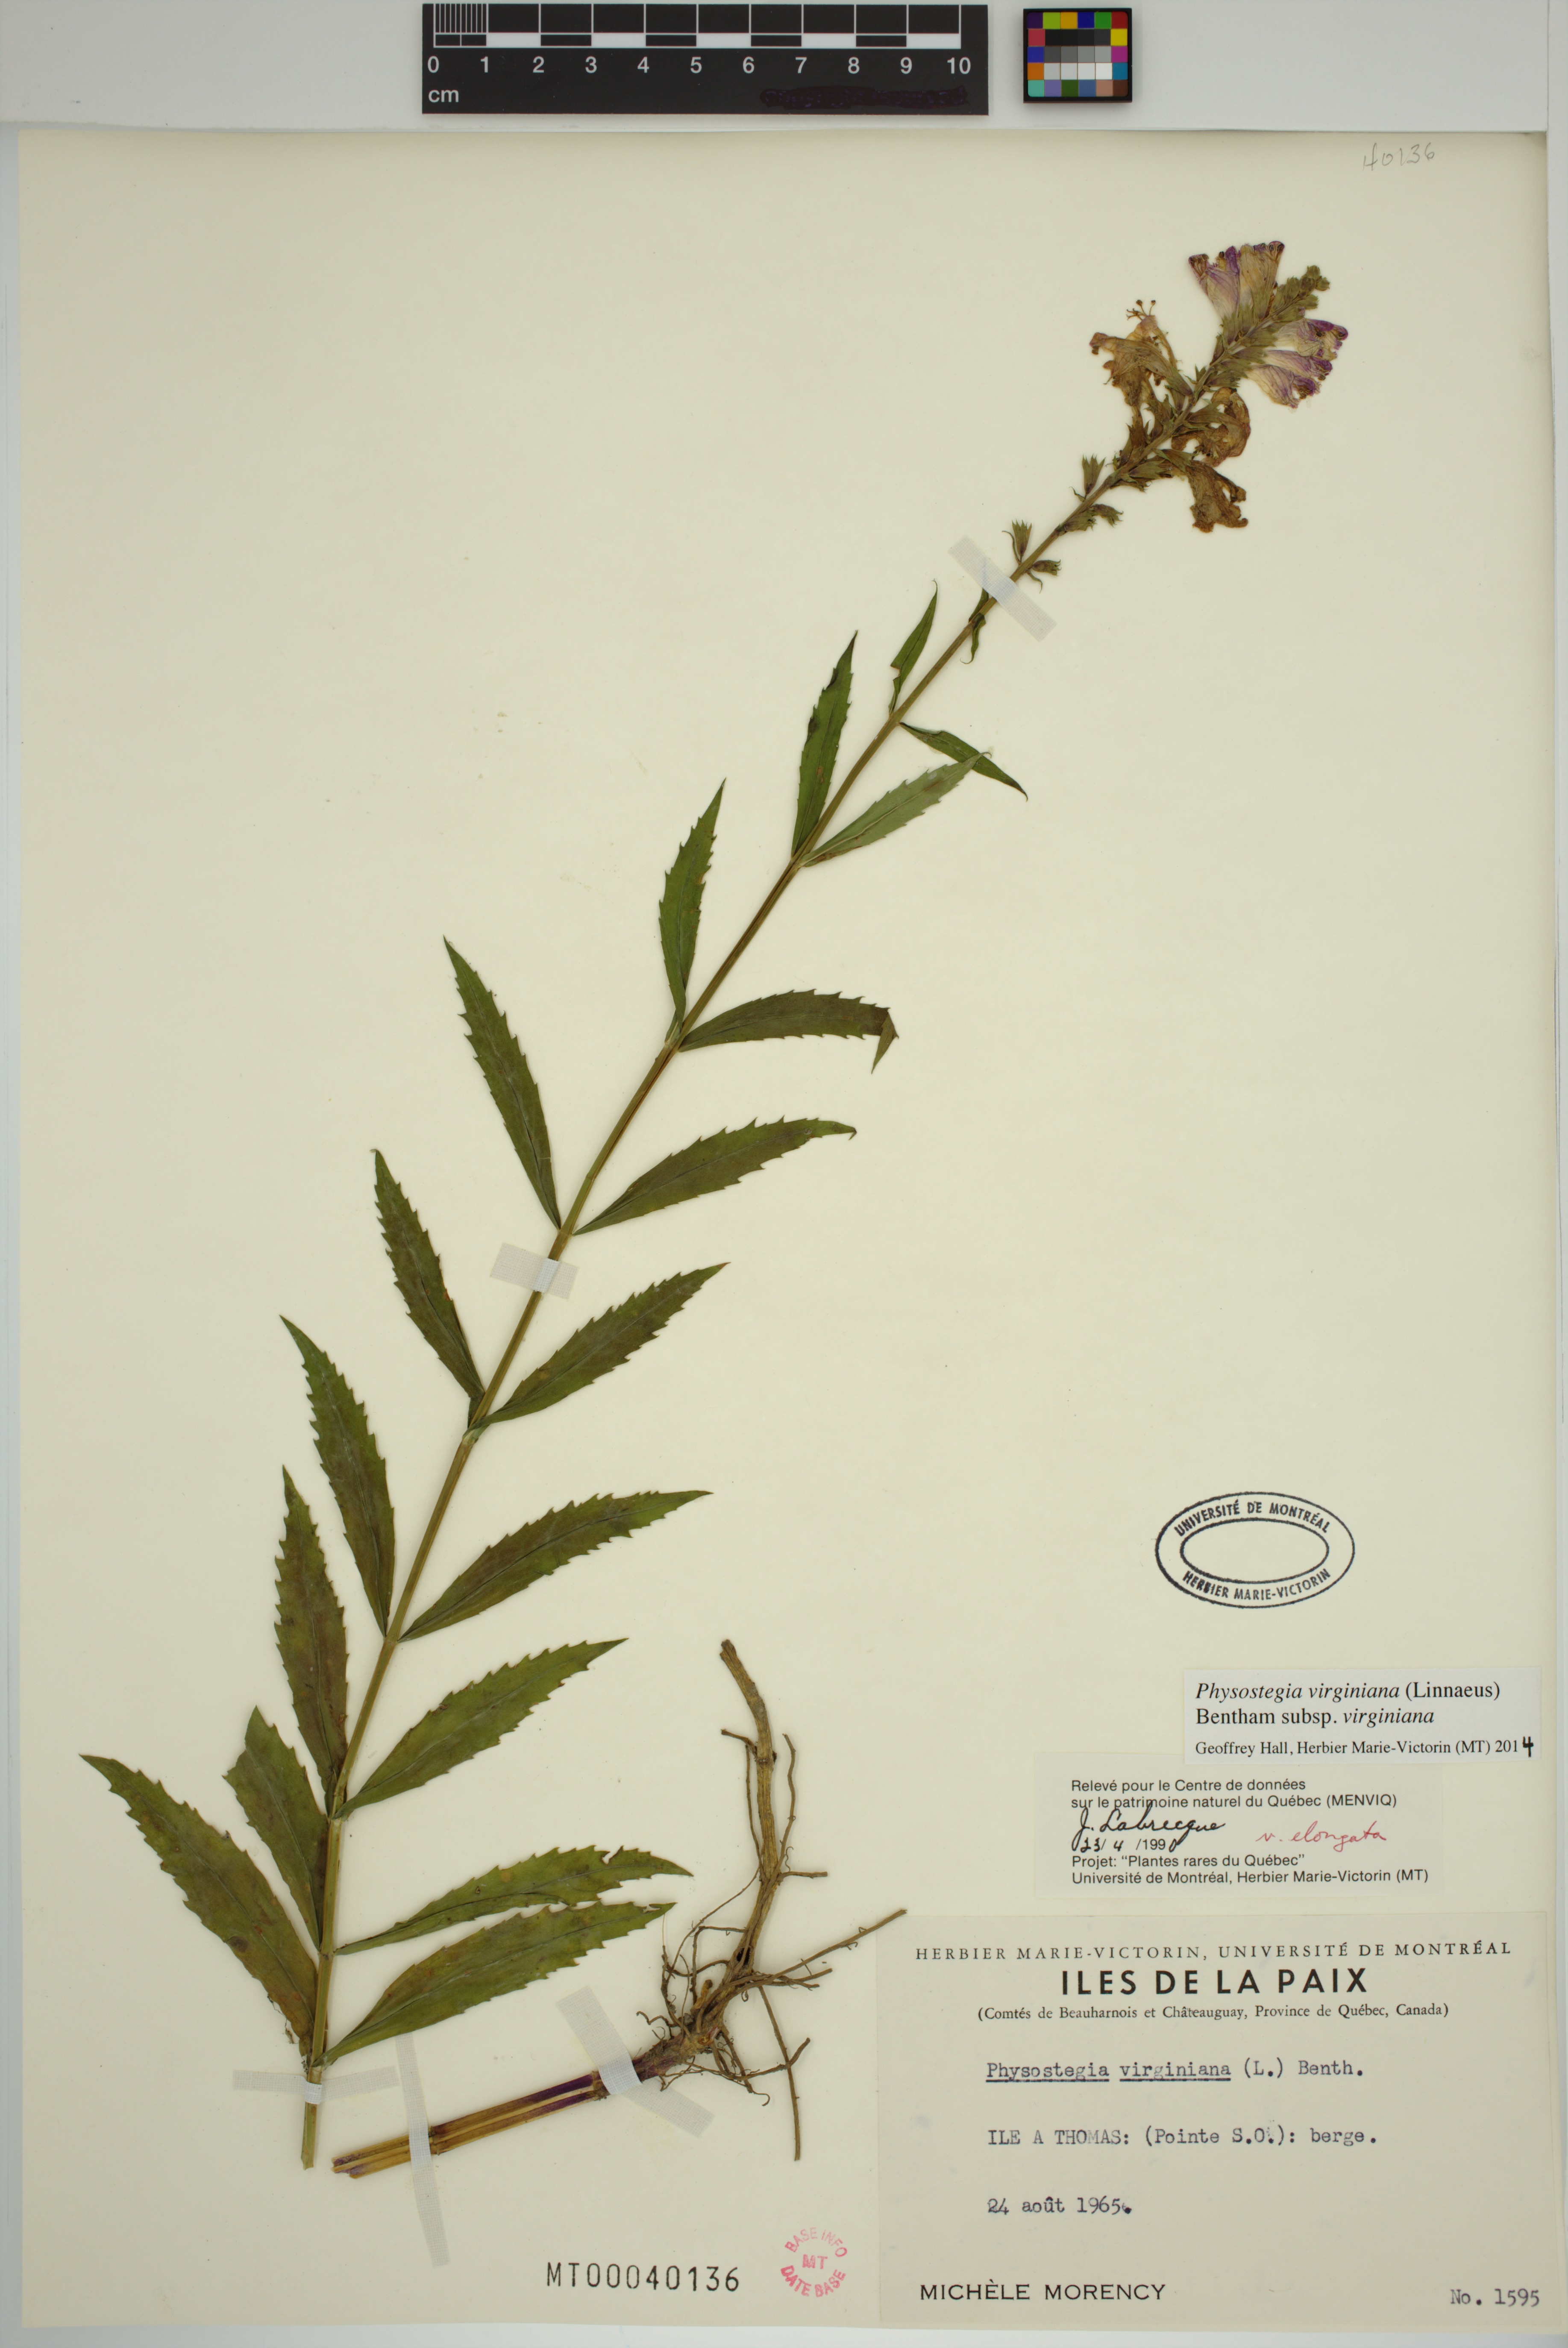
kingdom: Plantae
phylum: Tracheophyta
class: Magnoliopsida
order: Lamiales
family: Lamiaceae
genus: Physostegia
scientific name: Physostegia virginiana
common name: Obedient-plant
